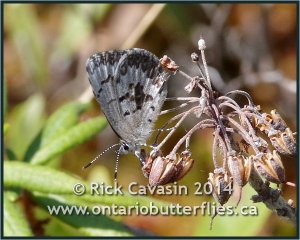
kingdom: Animalia
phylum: Arthropoda
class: Insecta
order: Lepidoptera
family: Lycaenidae
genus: Celastrina
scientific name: Celastrina lucia
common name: Northern Spring Azure
